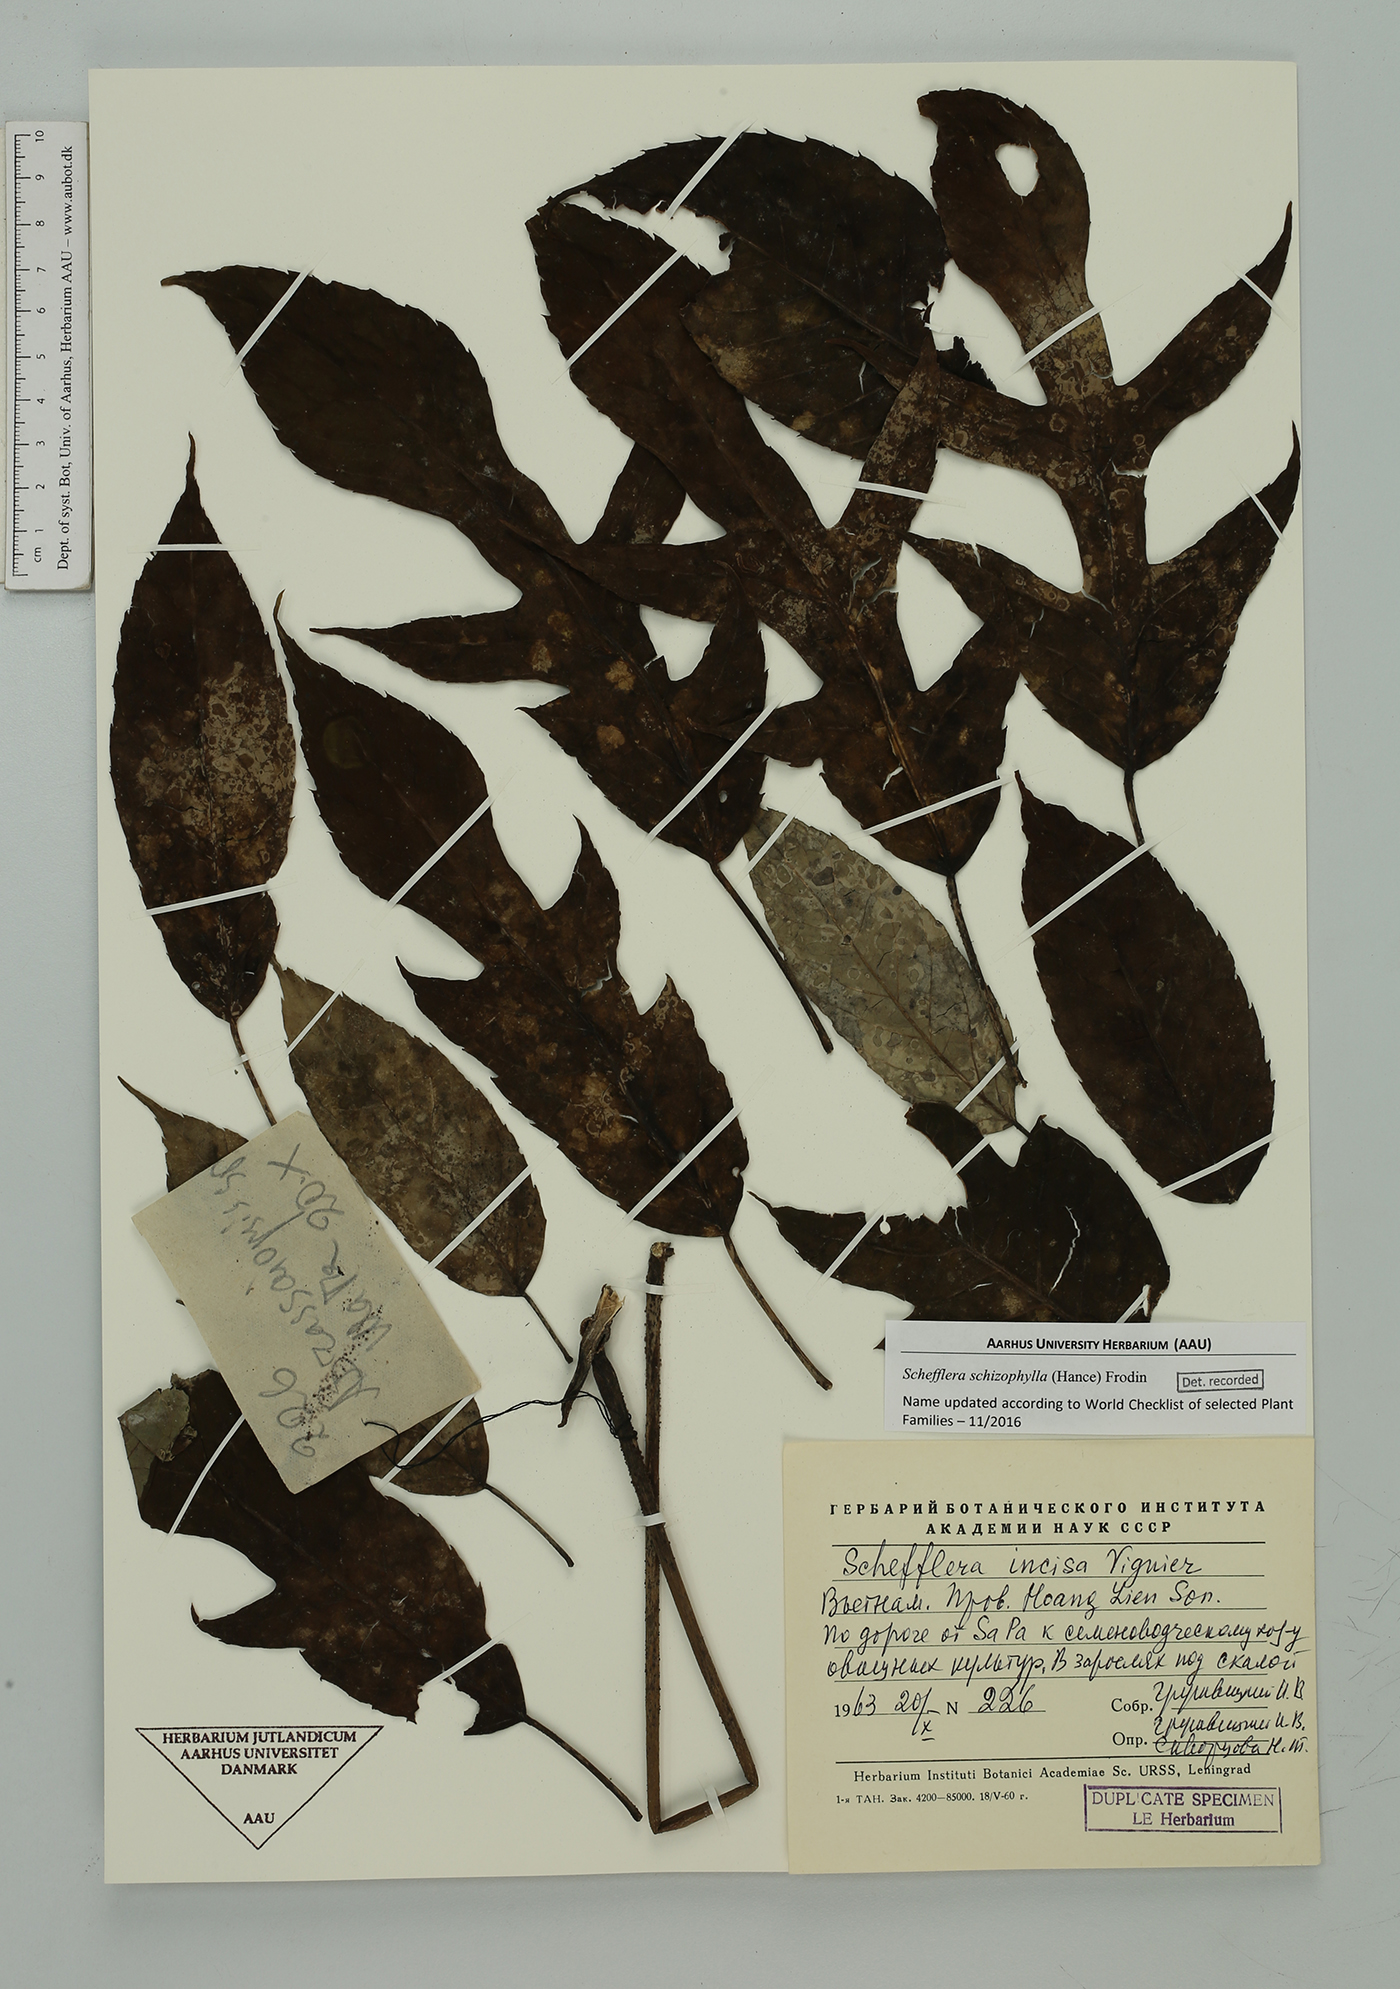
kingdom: Plantae
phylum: Tracheophyta
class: Magnoliopsida
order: Apiales
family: Araliaceae
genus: Heptapleurum
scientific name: Heptapleurum schizophyllum
